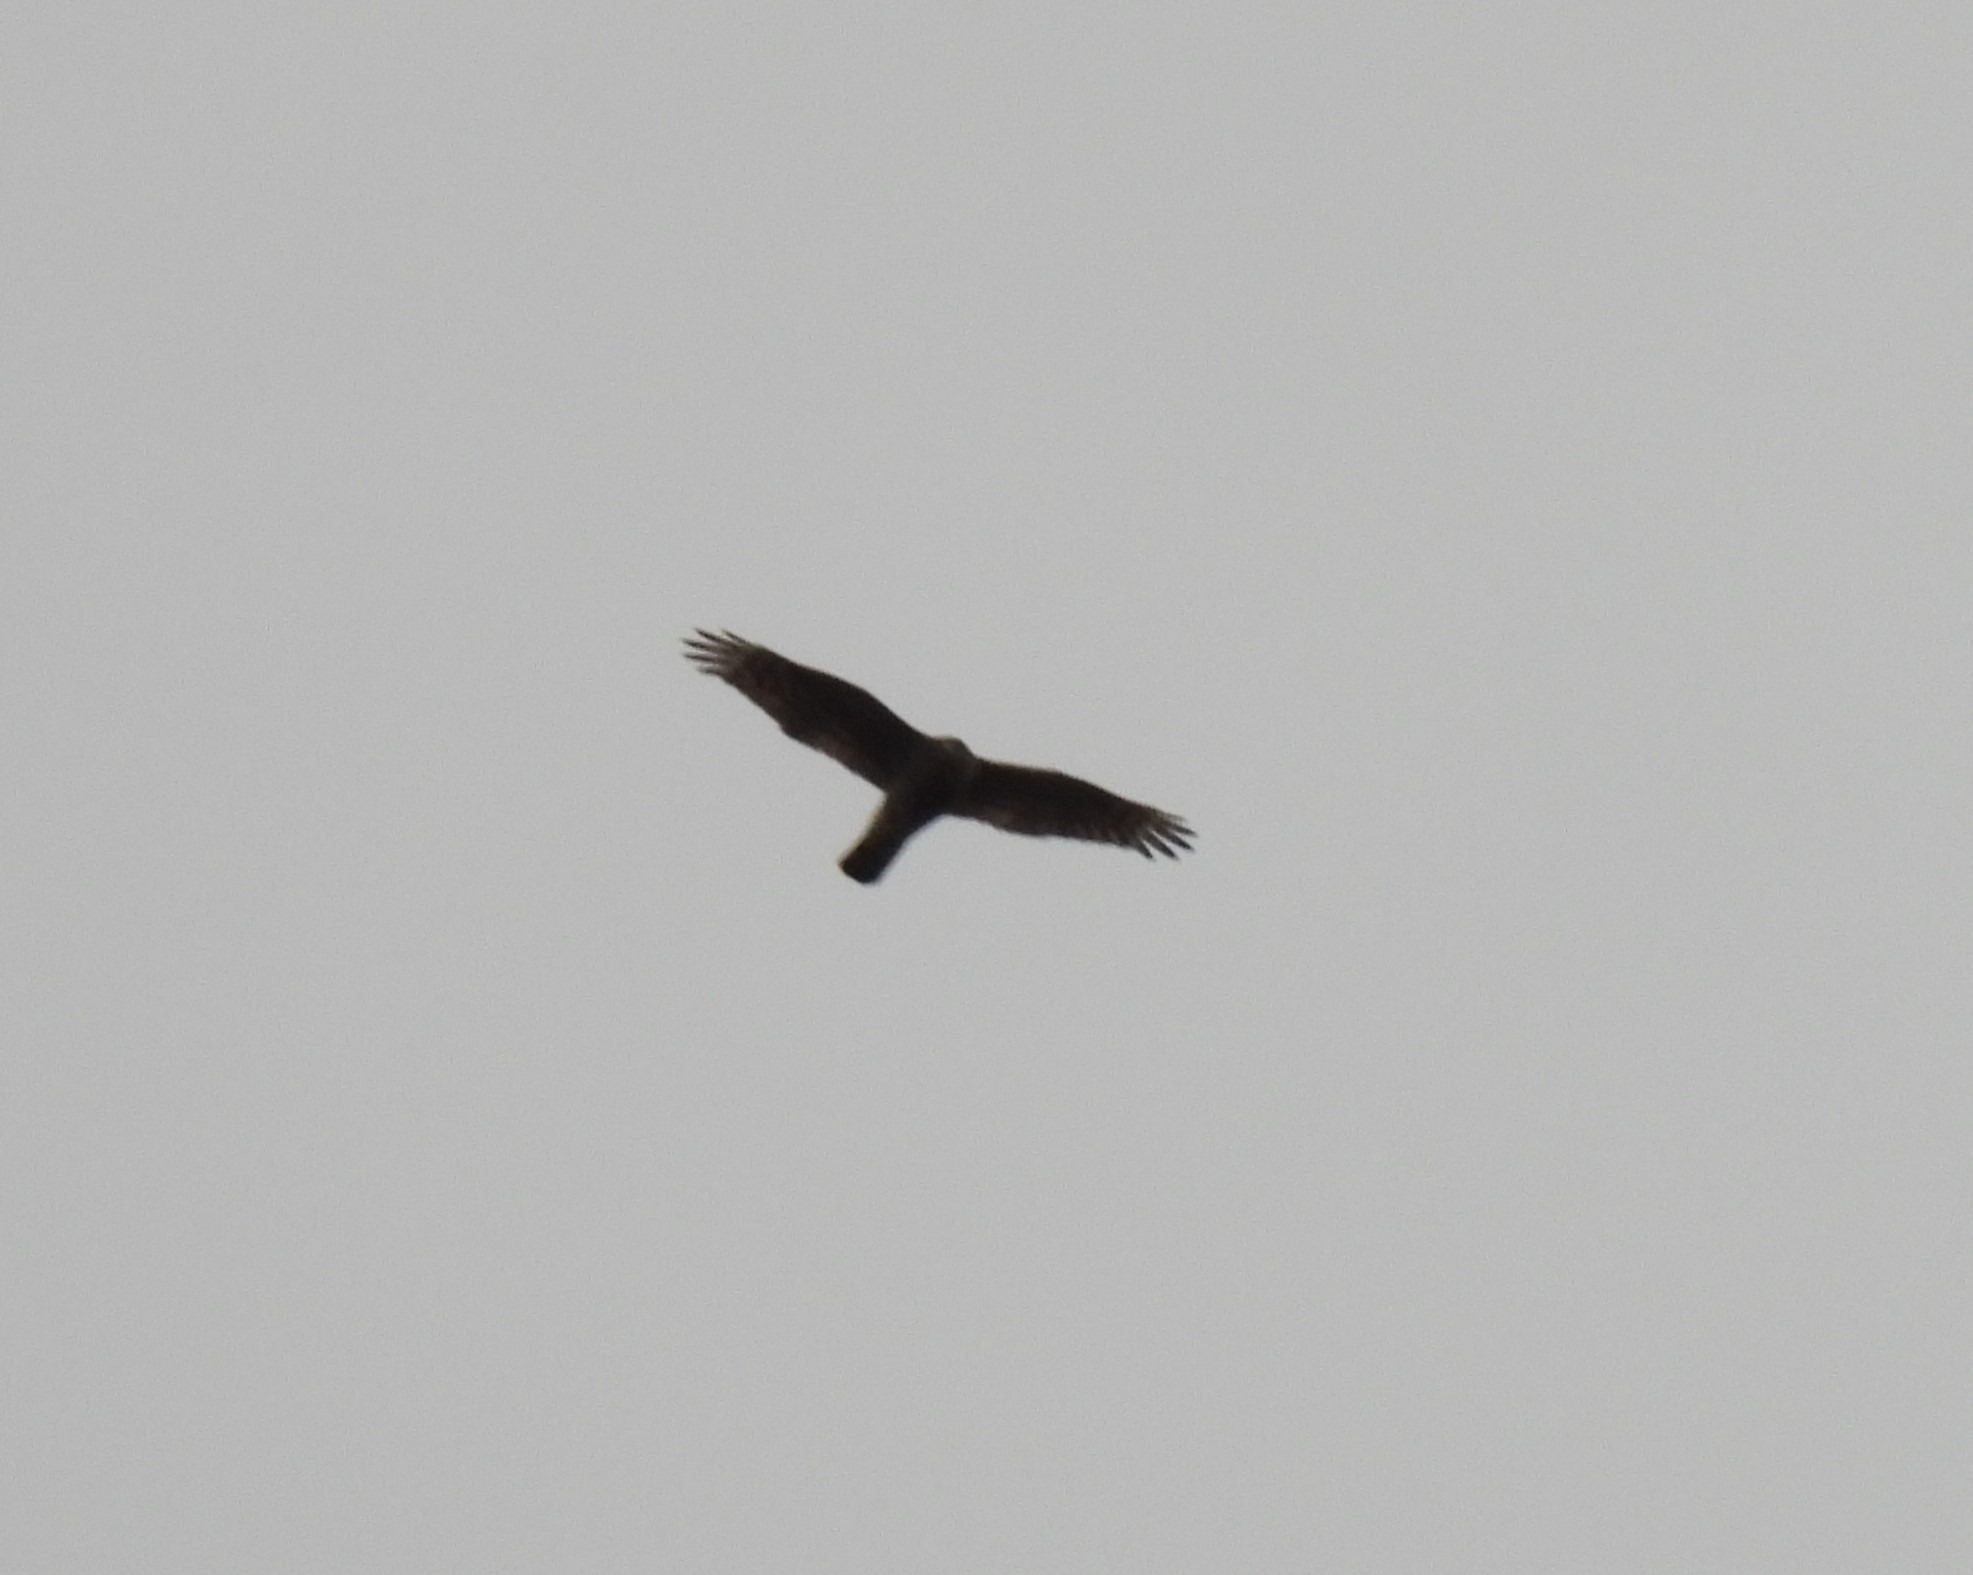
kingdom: Animalia
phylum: Chordata
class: Aves
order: Accipitriformes
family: Accipitridae
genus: Accipiter
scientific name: Accipiter nisus
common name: Spurvehøg
